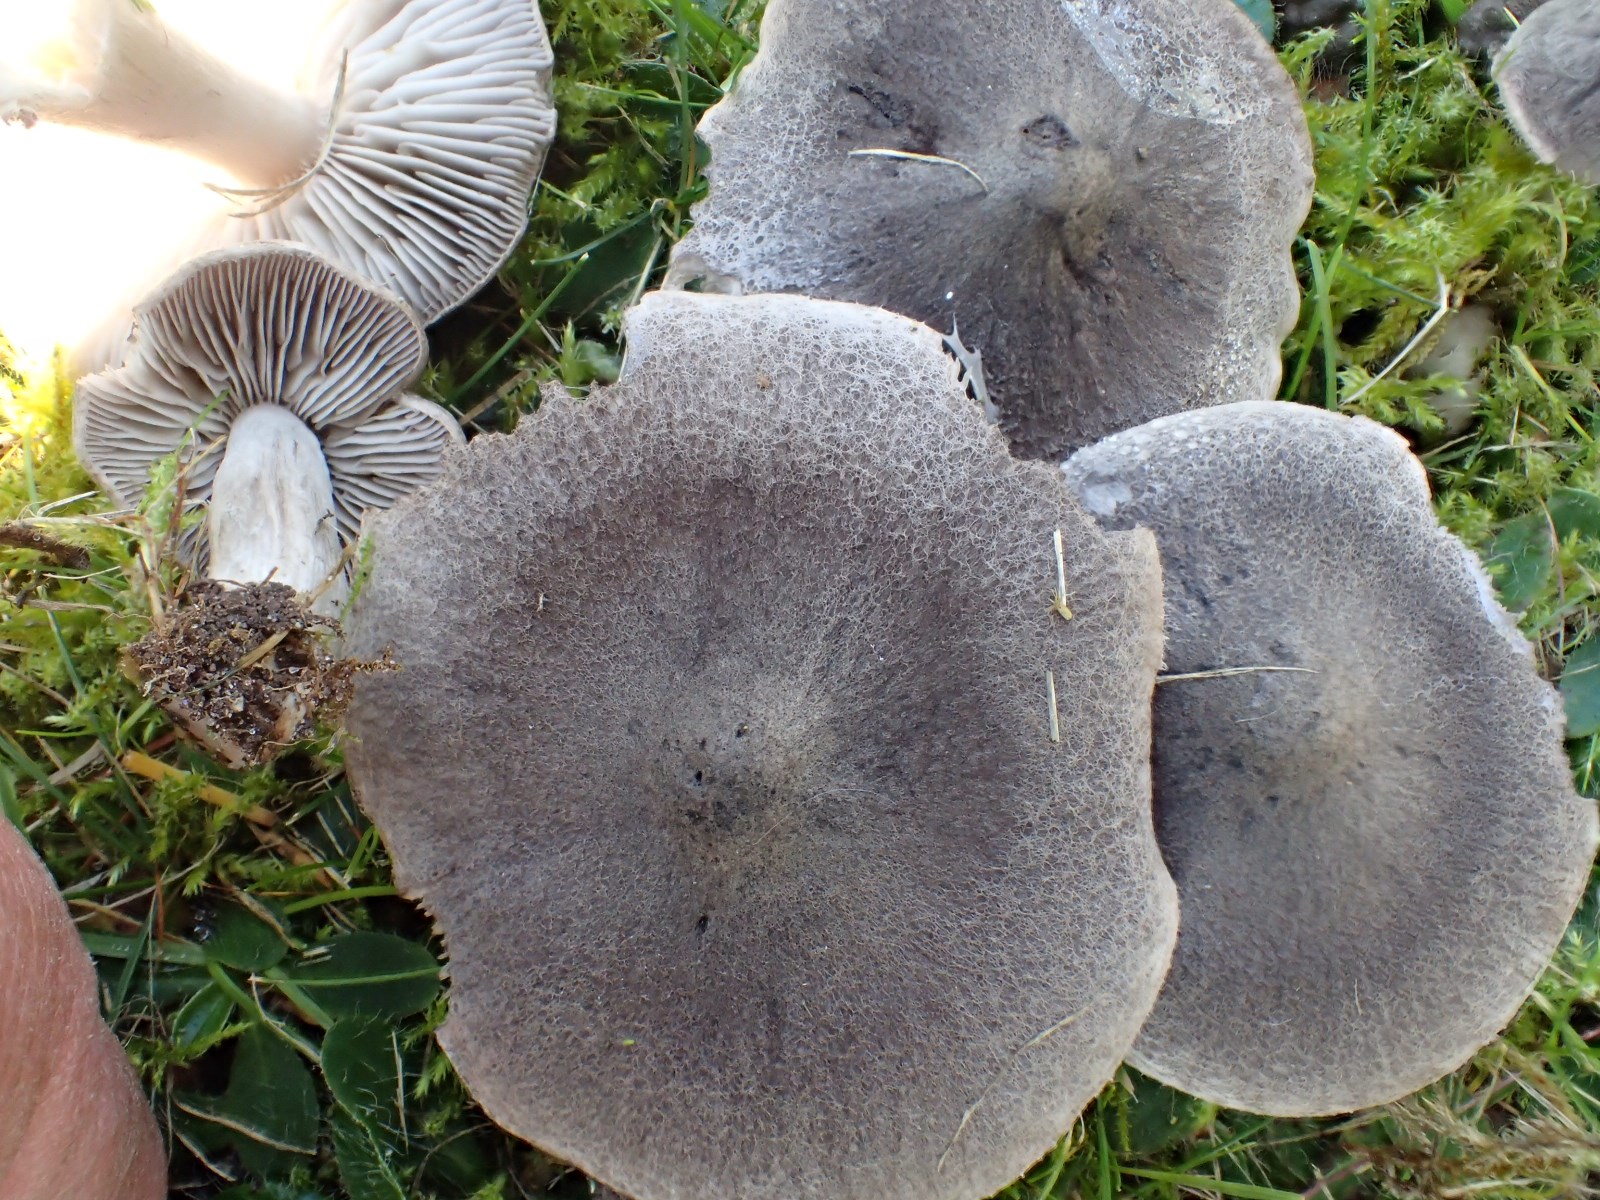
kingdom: Fungi
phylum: Basidiomycota
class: Agaricomycetes
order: Agaricales
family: Tricholomataceae
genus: Tricholoma
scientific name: Tricholoma terreum
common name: jordfarvet ridderhat
